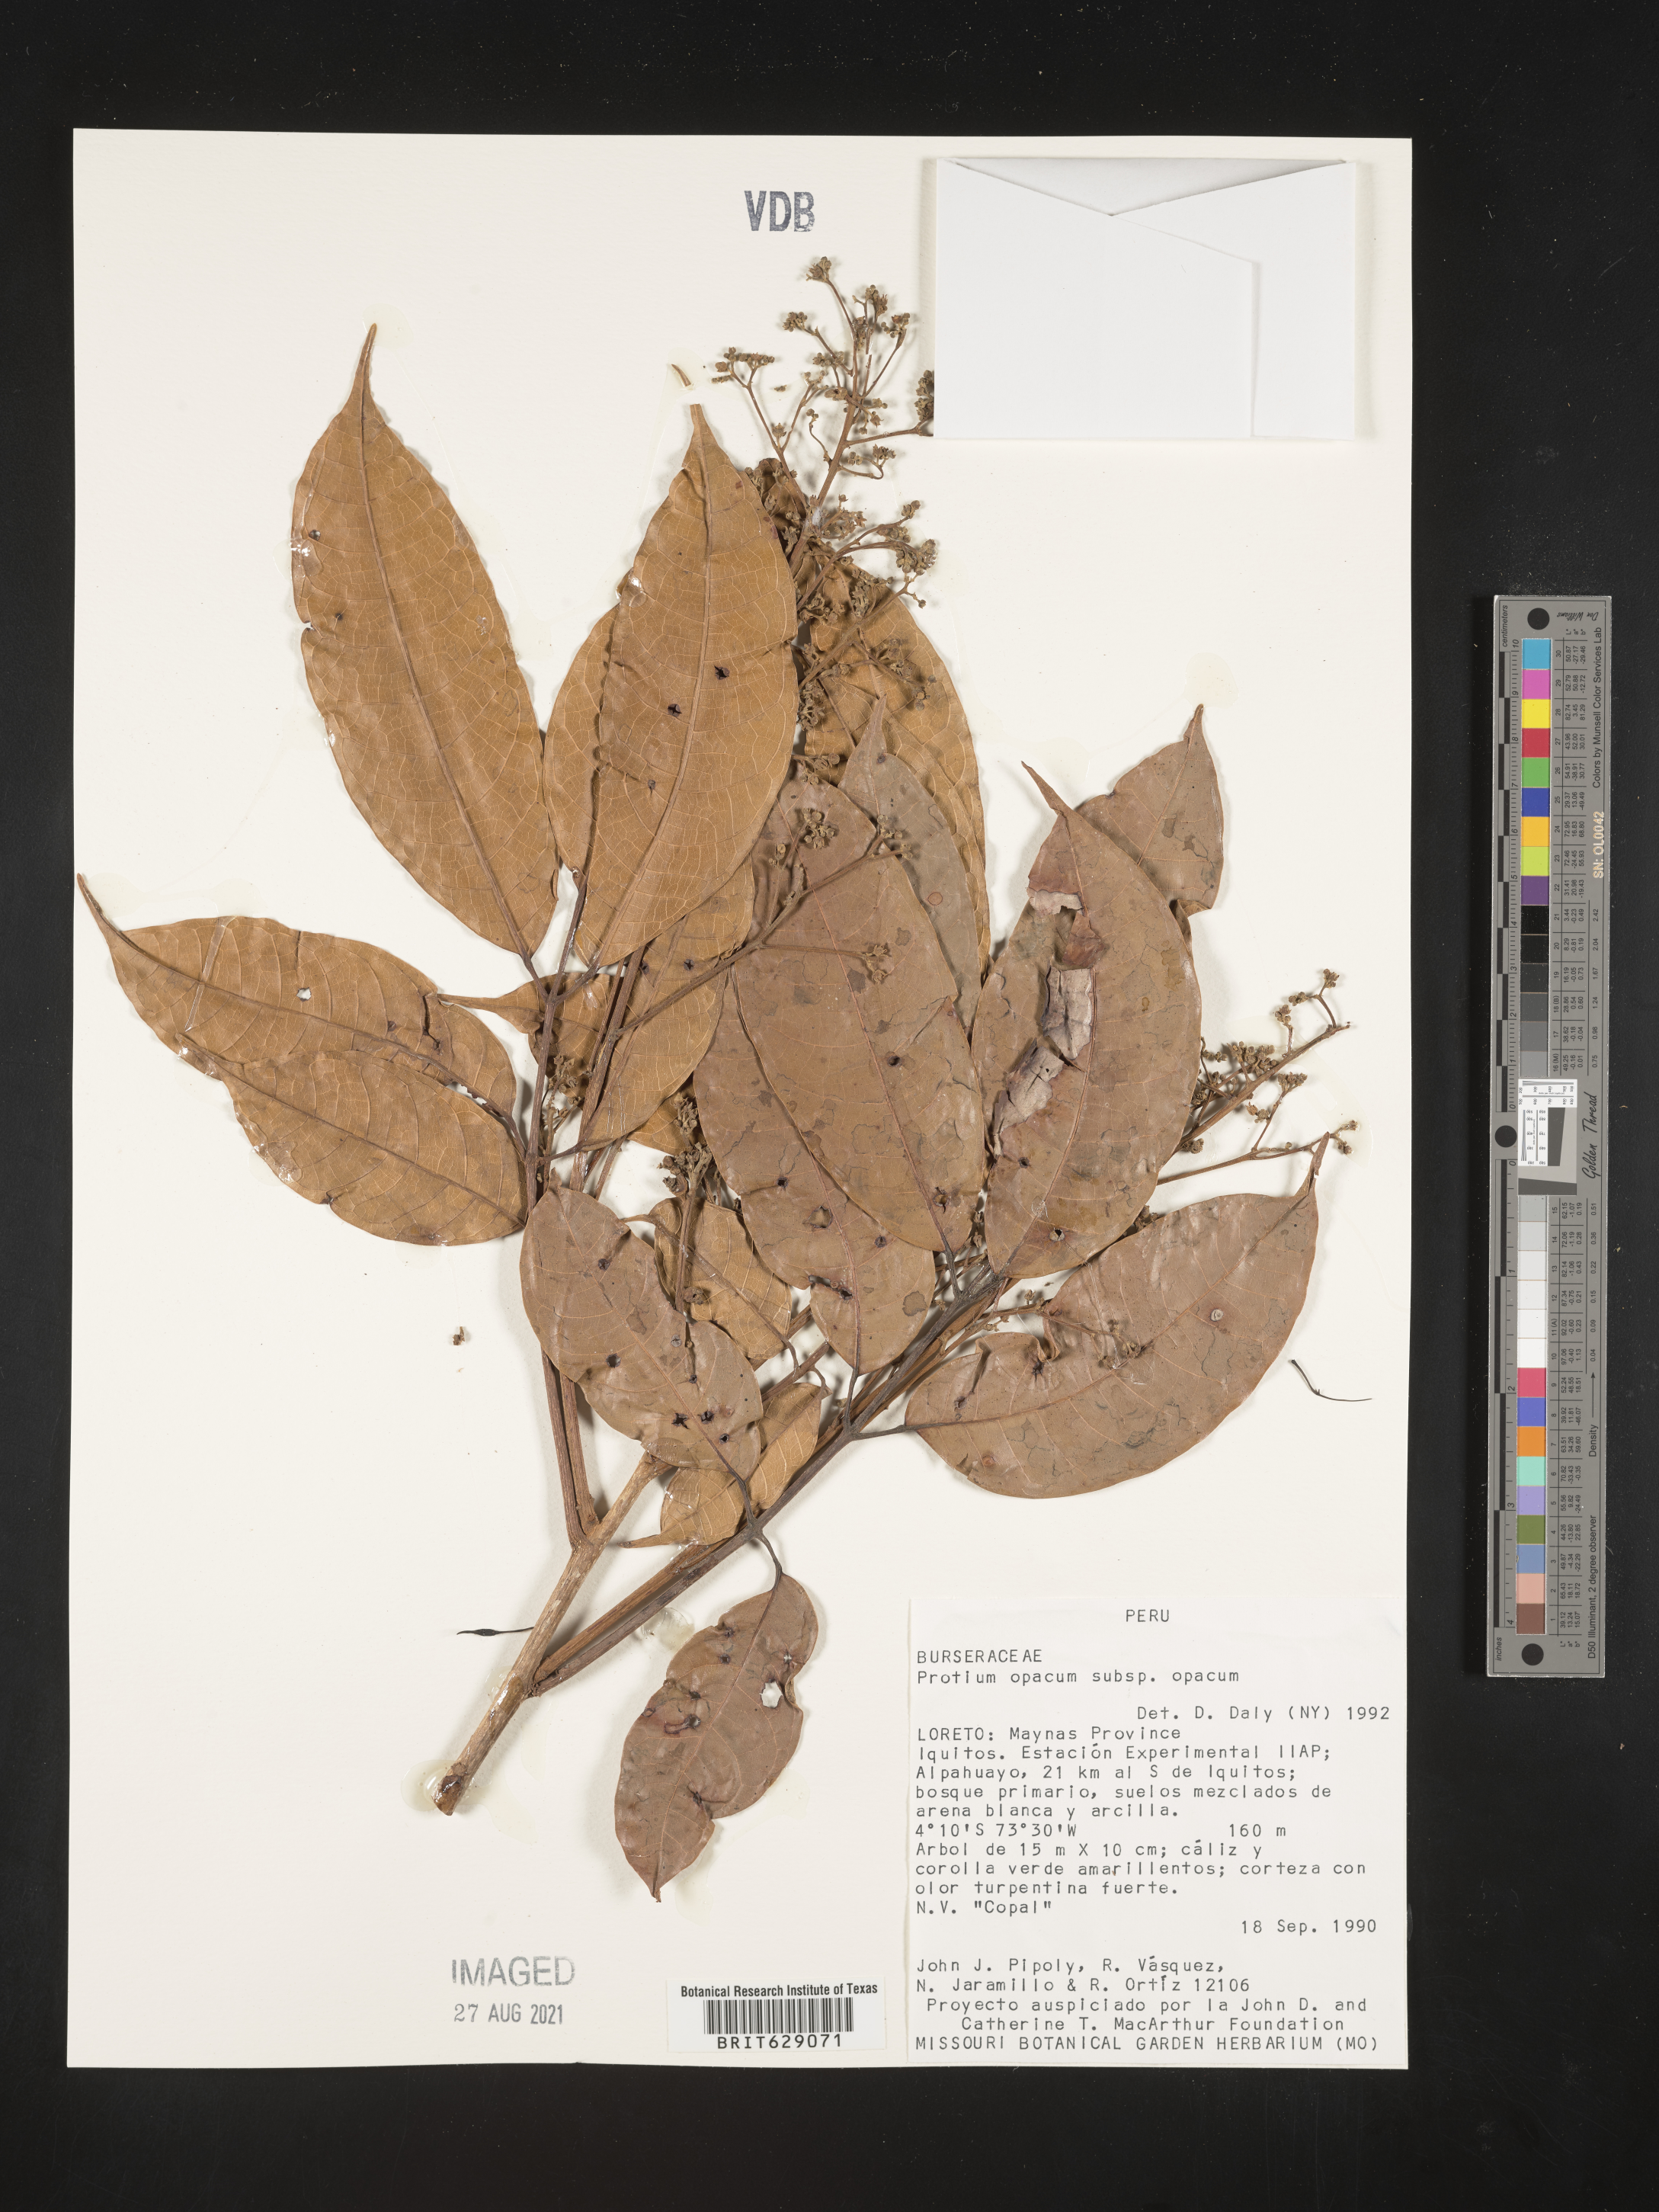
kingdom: Plantae
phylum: Tracheophyta
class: Magnoliopsida
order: Sapindales
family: Burseraceae
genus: Protium
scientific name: Protium opacum
